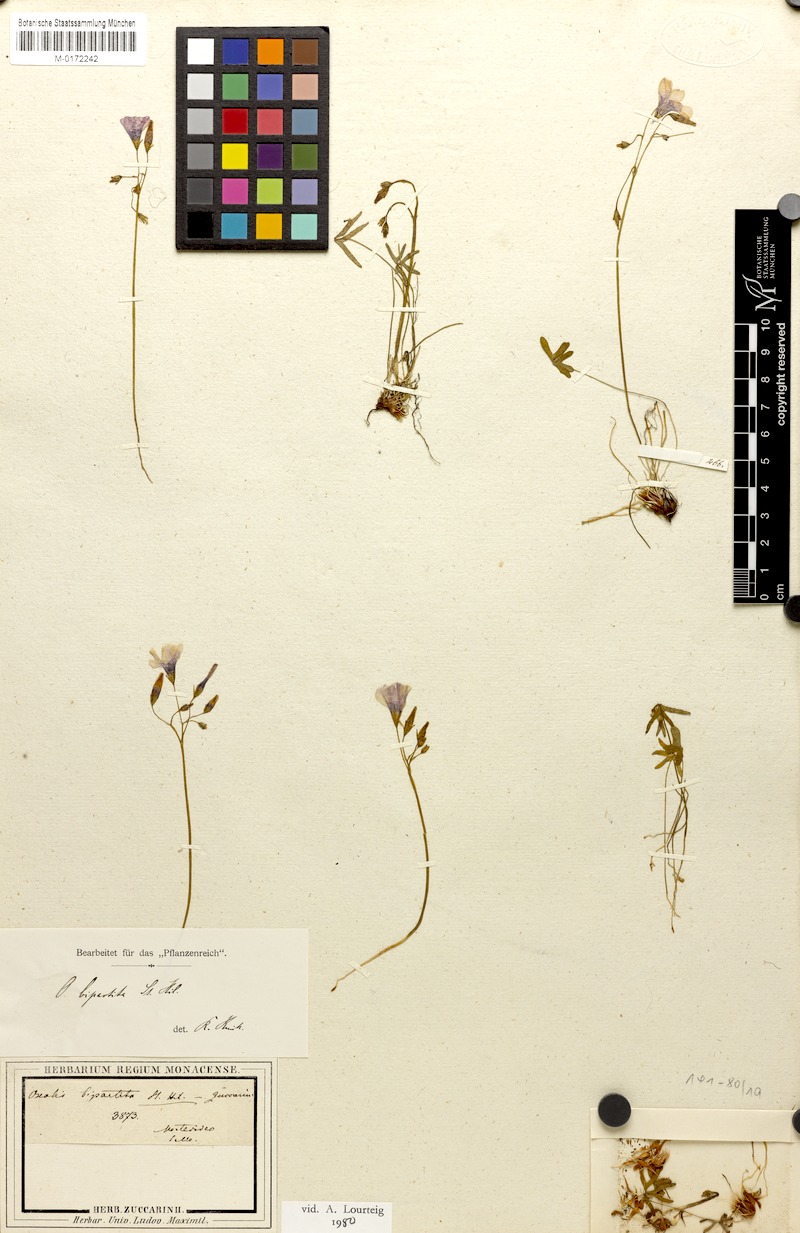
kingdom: Plantae
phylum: Tracheophyta
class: Magnoliopsida
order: Oxalidales
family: Oxalidaceae
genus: Oxalis
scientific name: Oxalis bipartita
